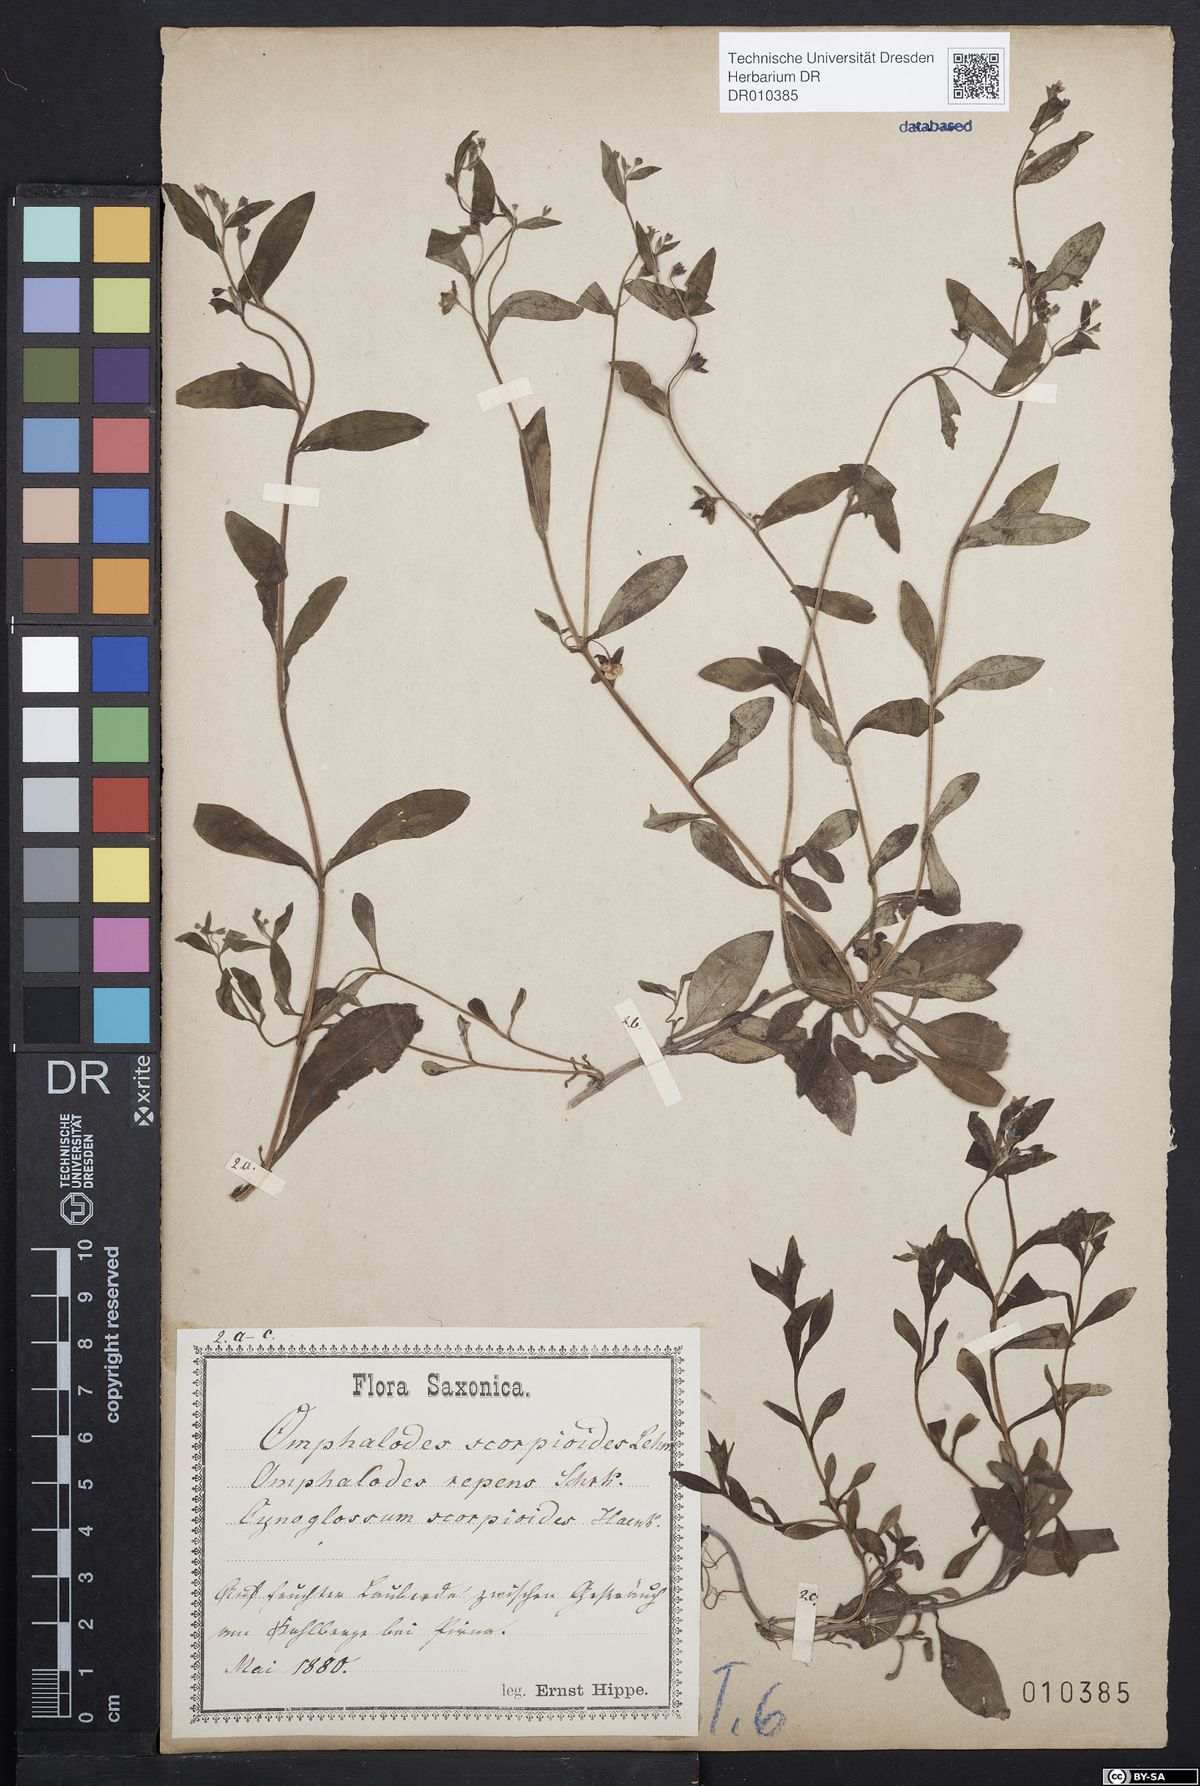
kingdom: Plantae
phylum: Tracheophyta
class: Magnoliopsida
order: Boraginales
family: Boraginaceae
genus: Memoremea
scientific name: Memoremea scorpioides
